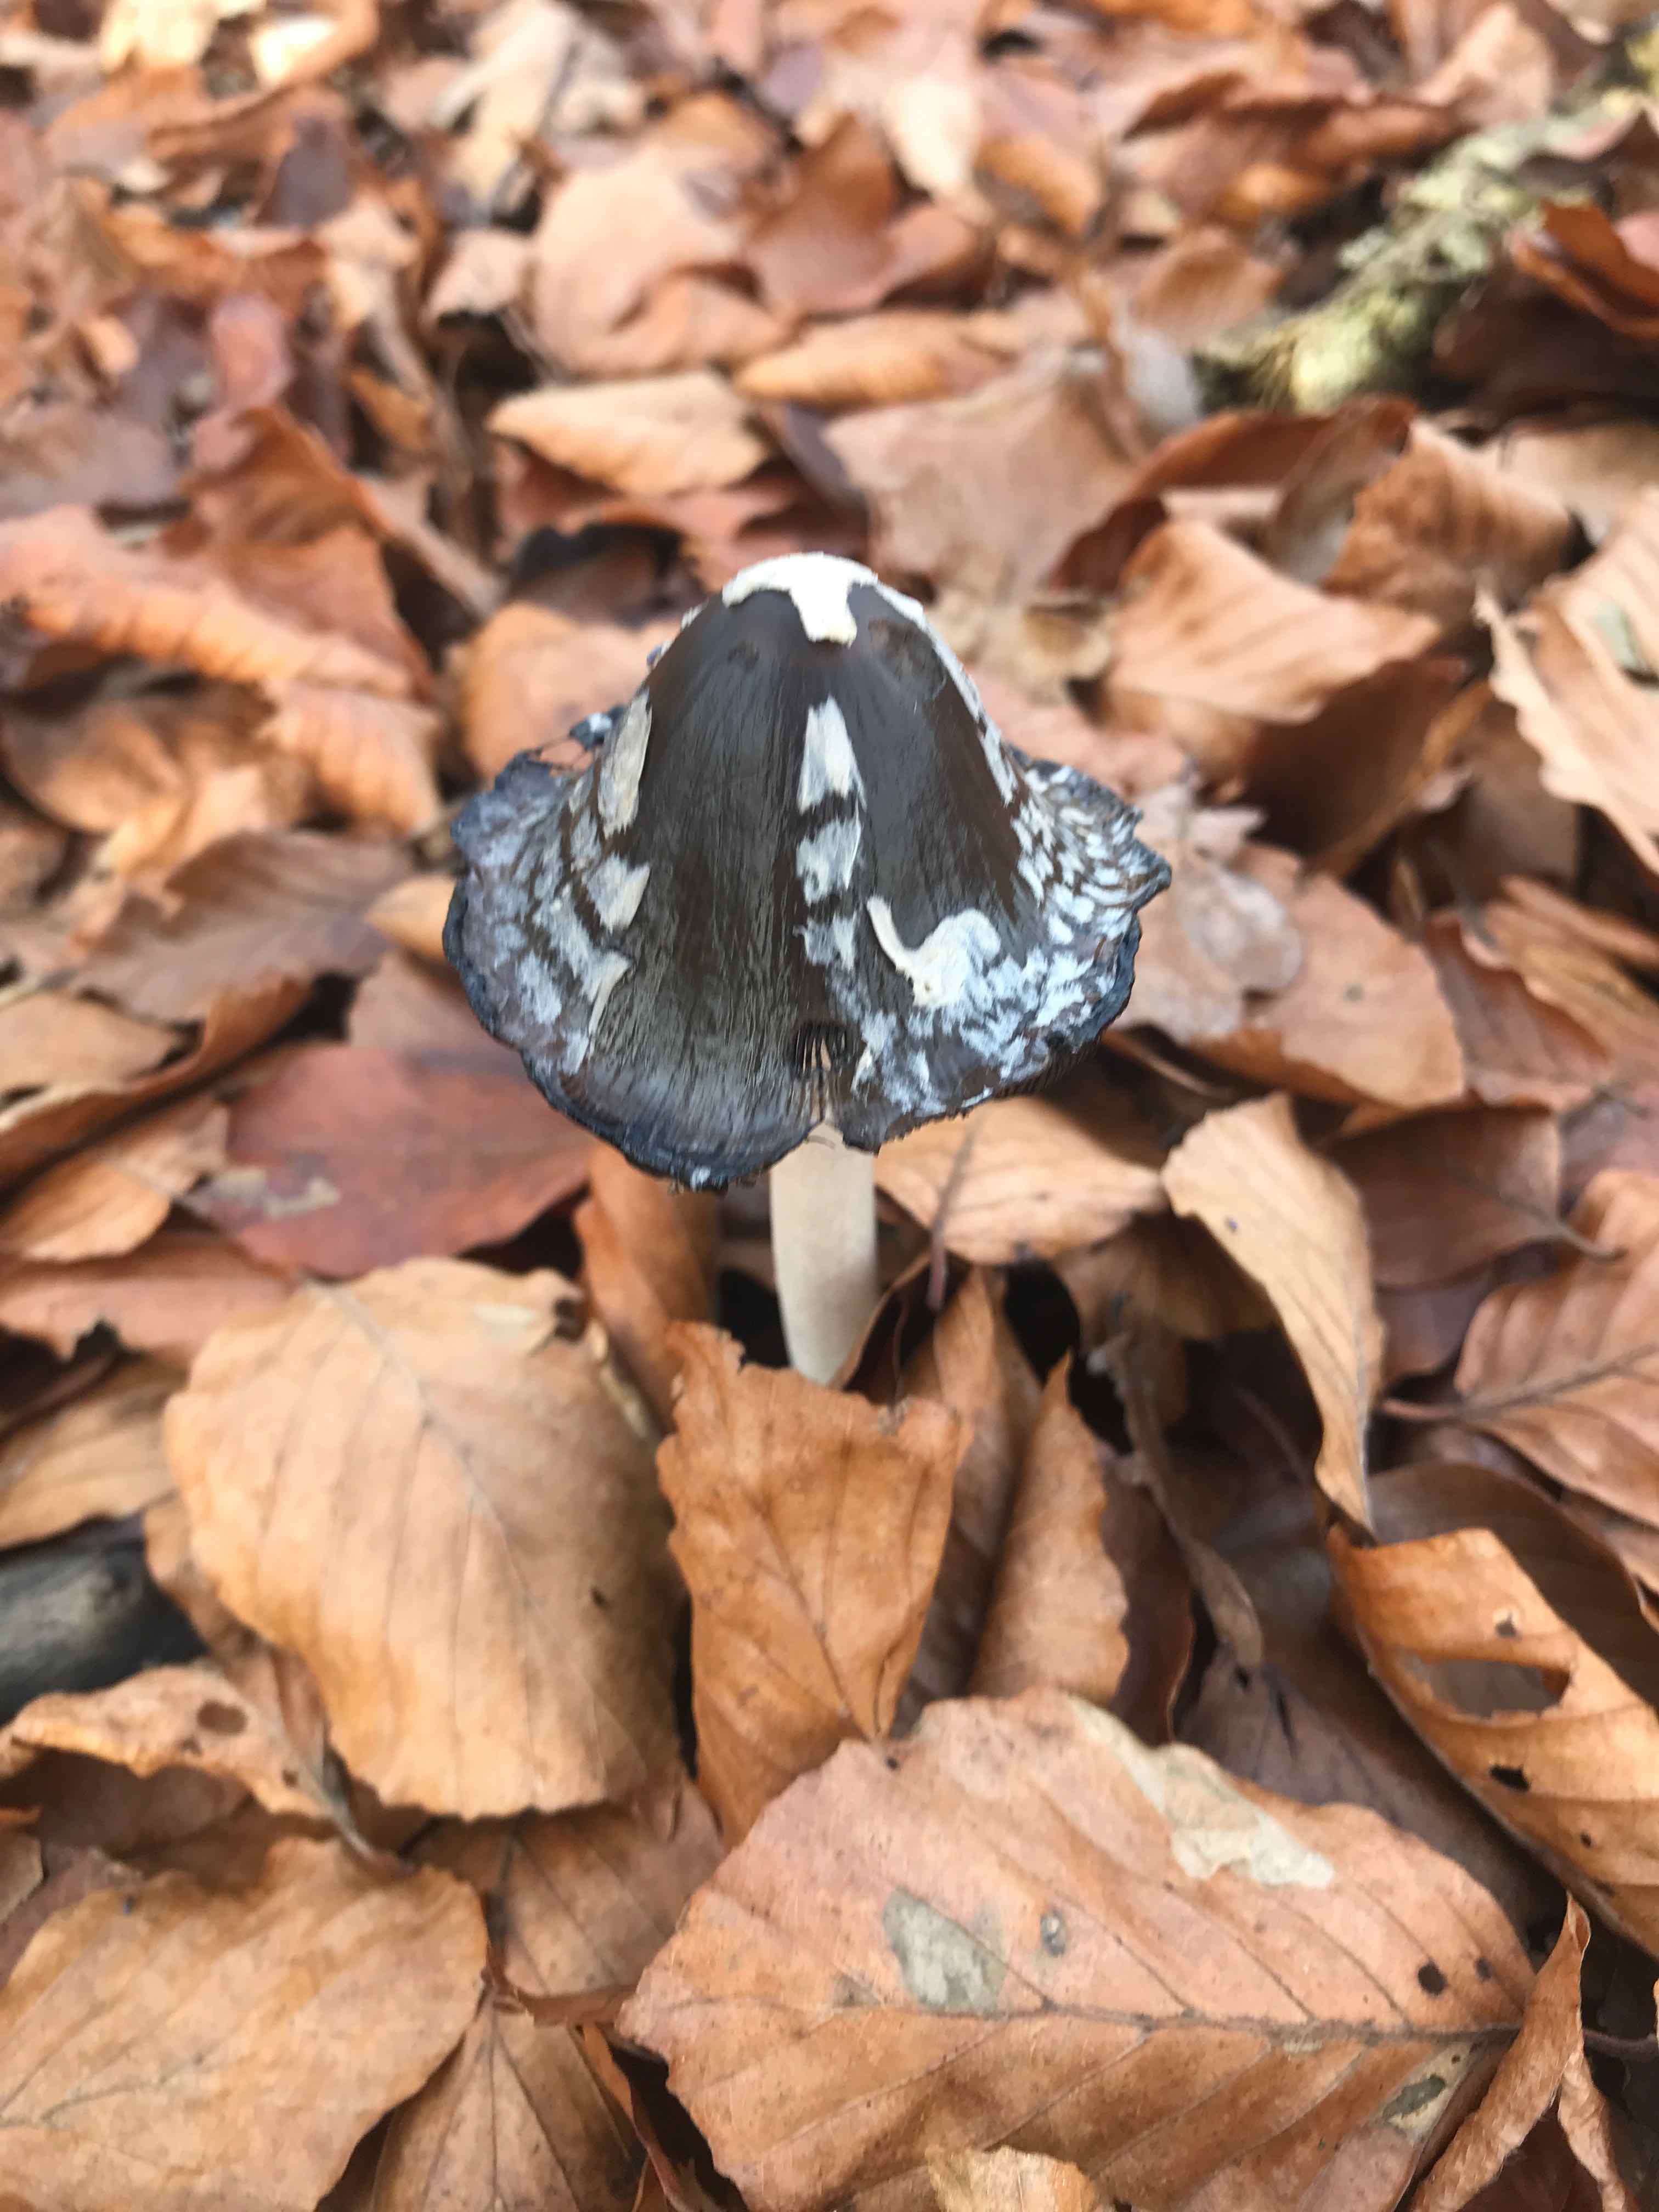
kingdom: Fungi
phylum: Basidiomycota
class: Agaricomycetes
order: Agaricales
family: Psathyrellaceae
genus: Coprinopsis
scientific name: Coprinopsis picacea
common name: skade-blækhat
